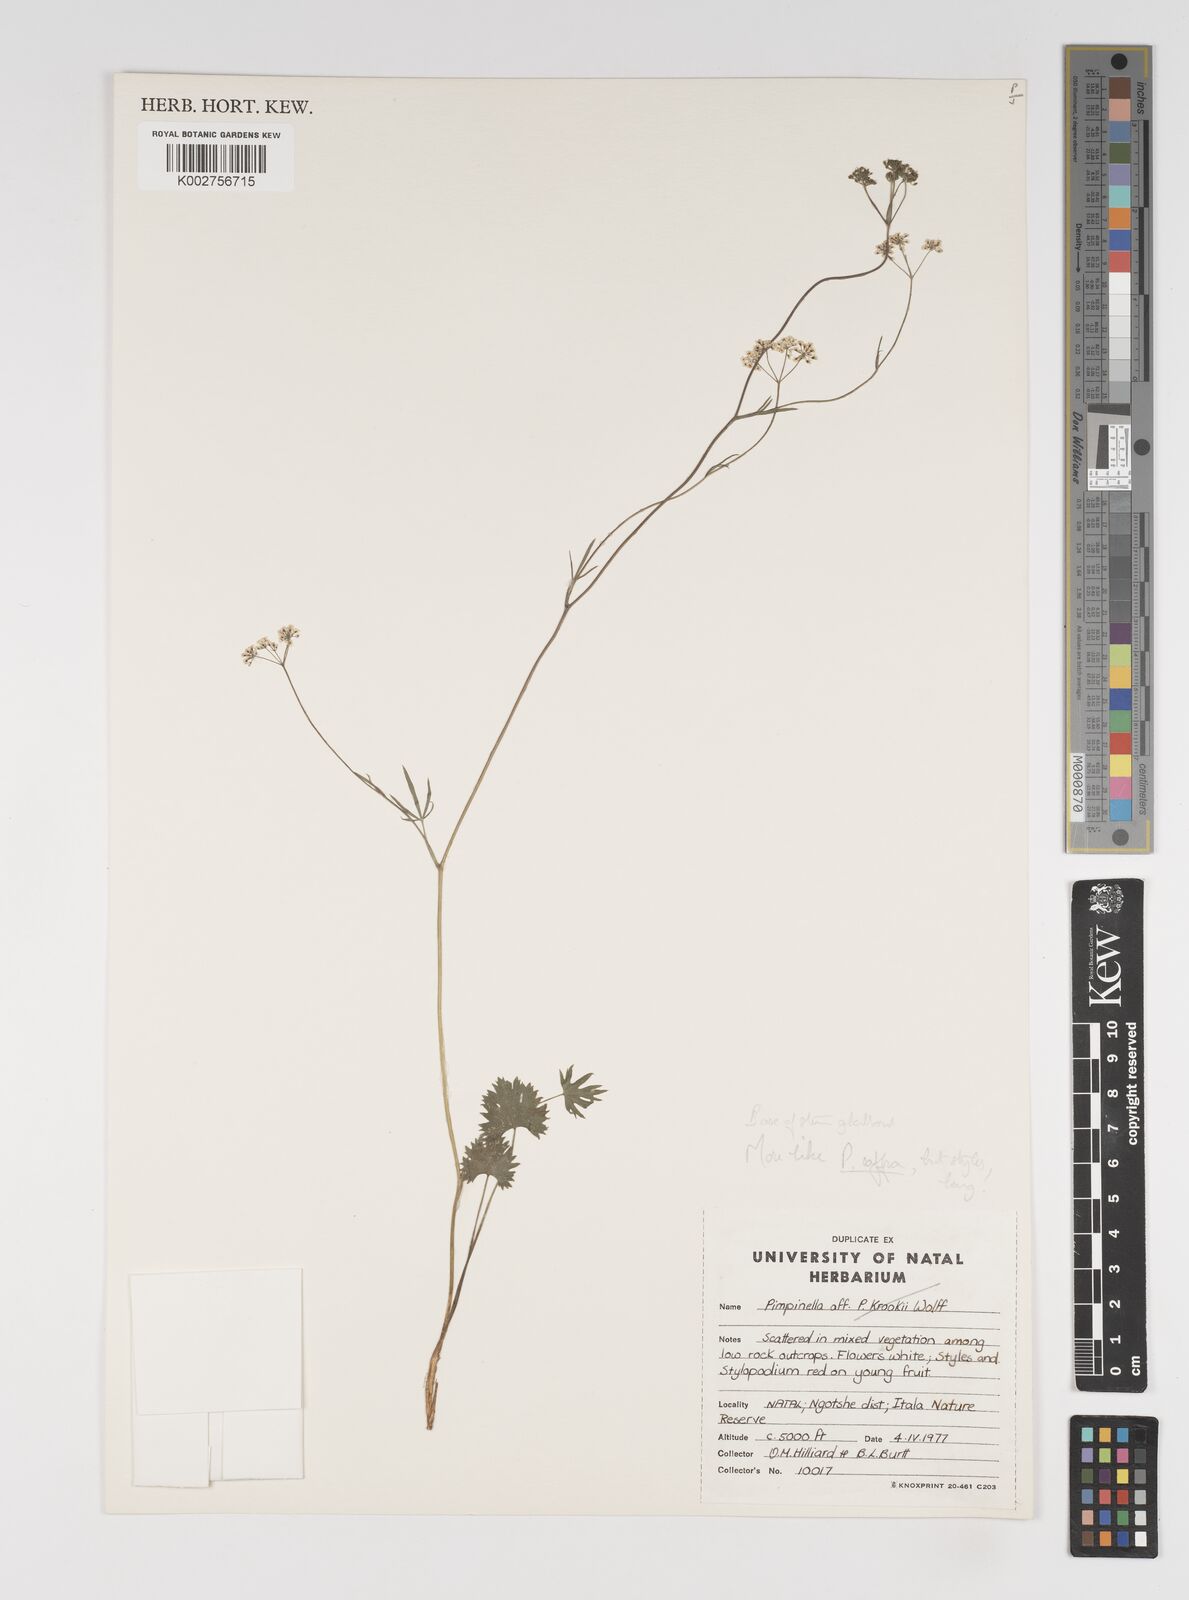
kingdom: Plantae
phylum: Tracheophyta
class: Magnoliopsida
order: Apiales
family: Apiaceae
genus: Pimpinella
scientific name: Pimpinella
